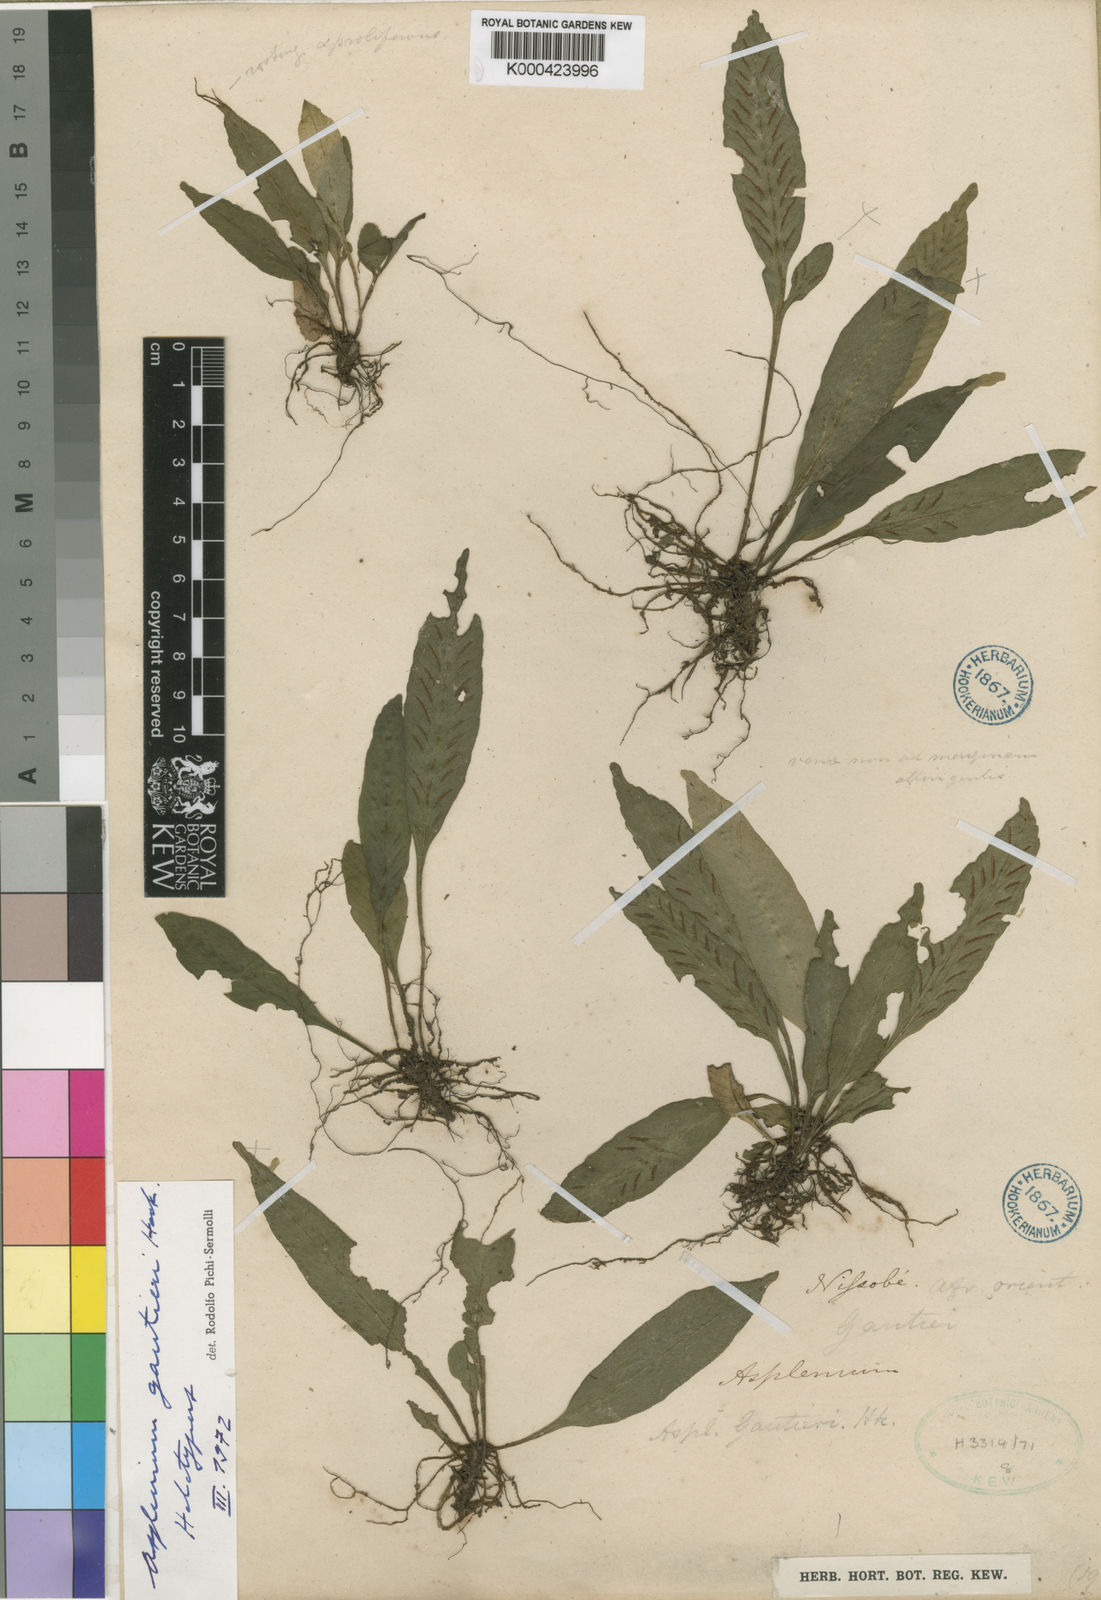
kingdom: Plantae
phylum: Tracheophyta
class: Polypodiopsida
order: Polypodiales
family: Aspleniaceae
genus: Asplenium
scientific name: Asplenium variabile
